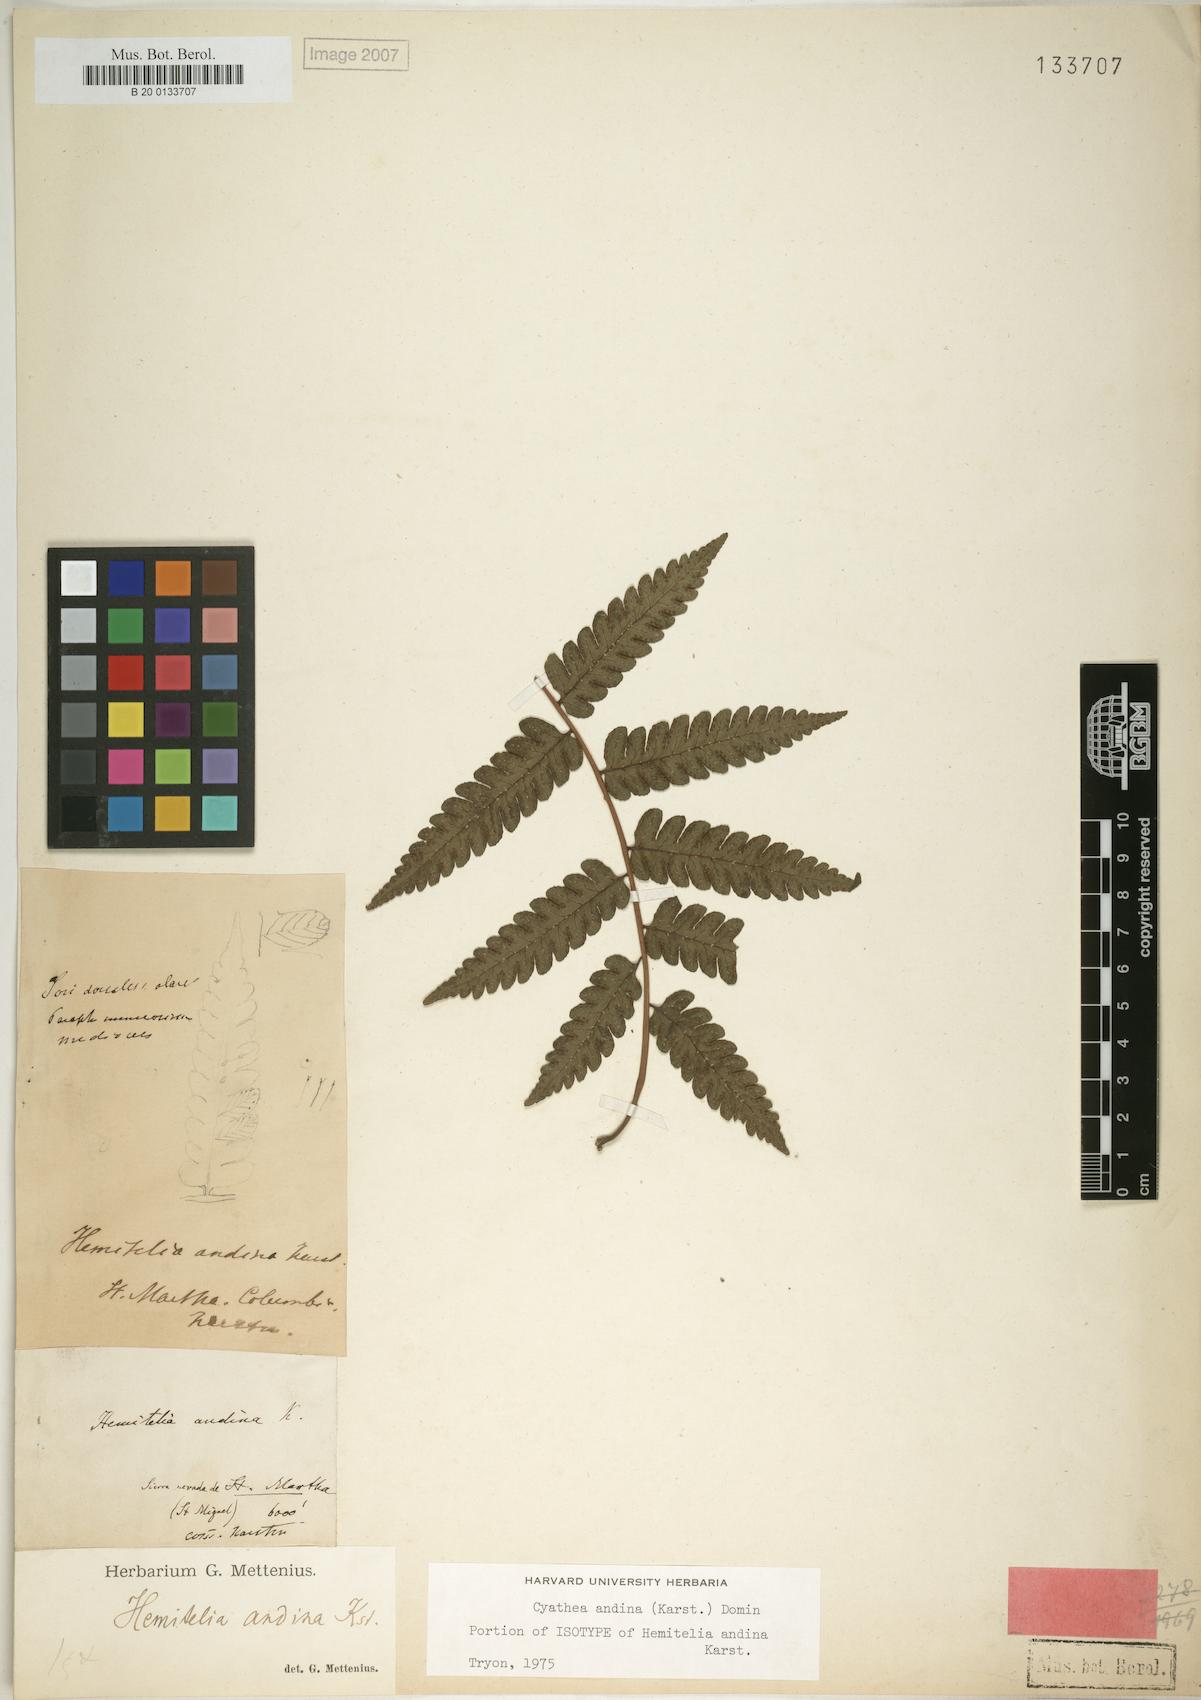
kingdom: Plantae
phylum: Tracheophyta
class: Polypodiopsida
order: Cyatheales
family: Cyatheaceae
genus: Cyathea
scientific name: Cyathea andina
